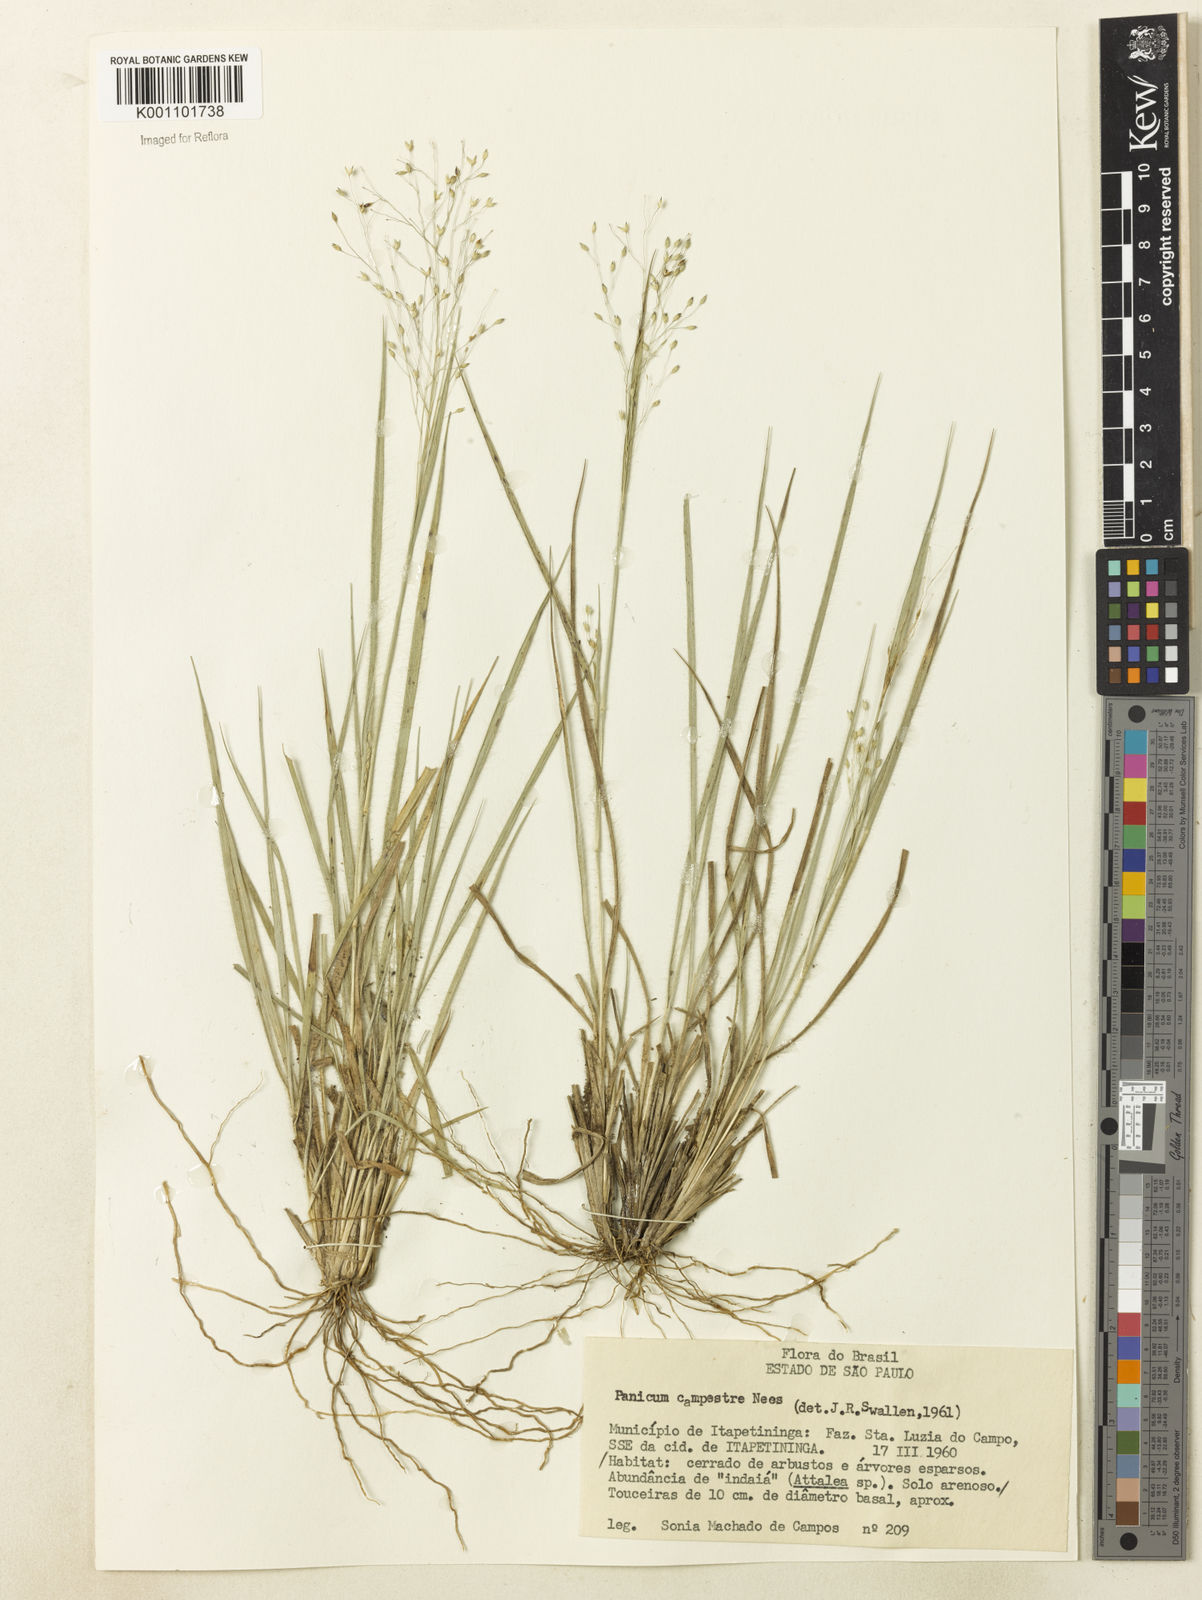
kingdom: Plantae
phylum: Tracheophyta
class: Liliopsida
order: Poales
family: Poaceae
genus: Panicum
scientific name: Panicum peladoense
